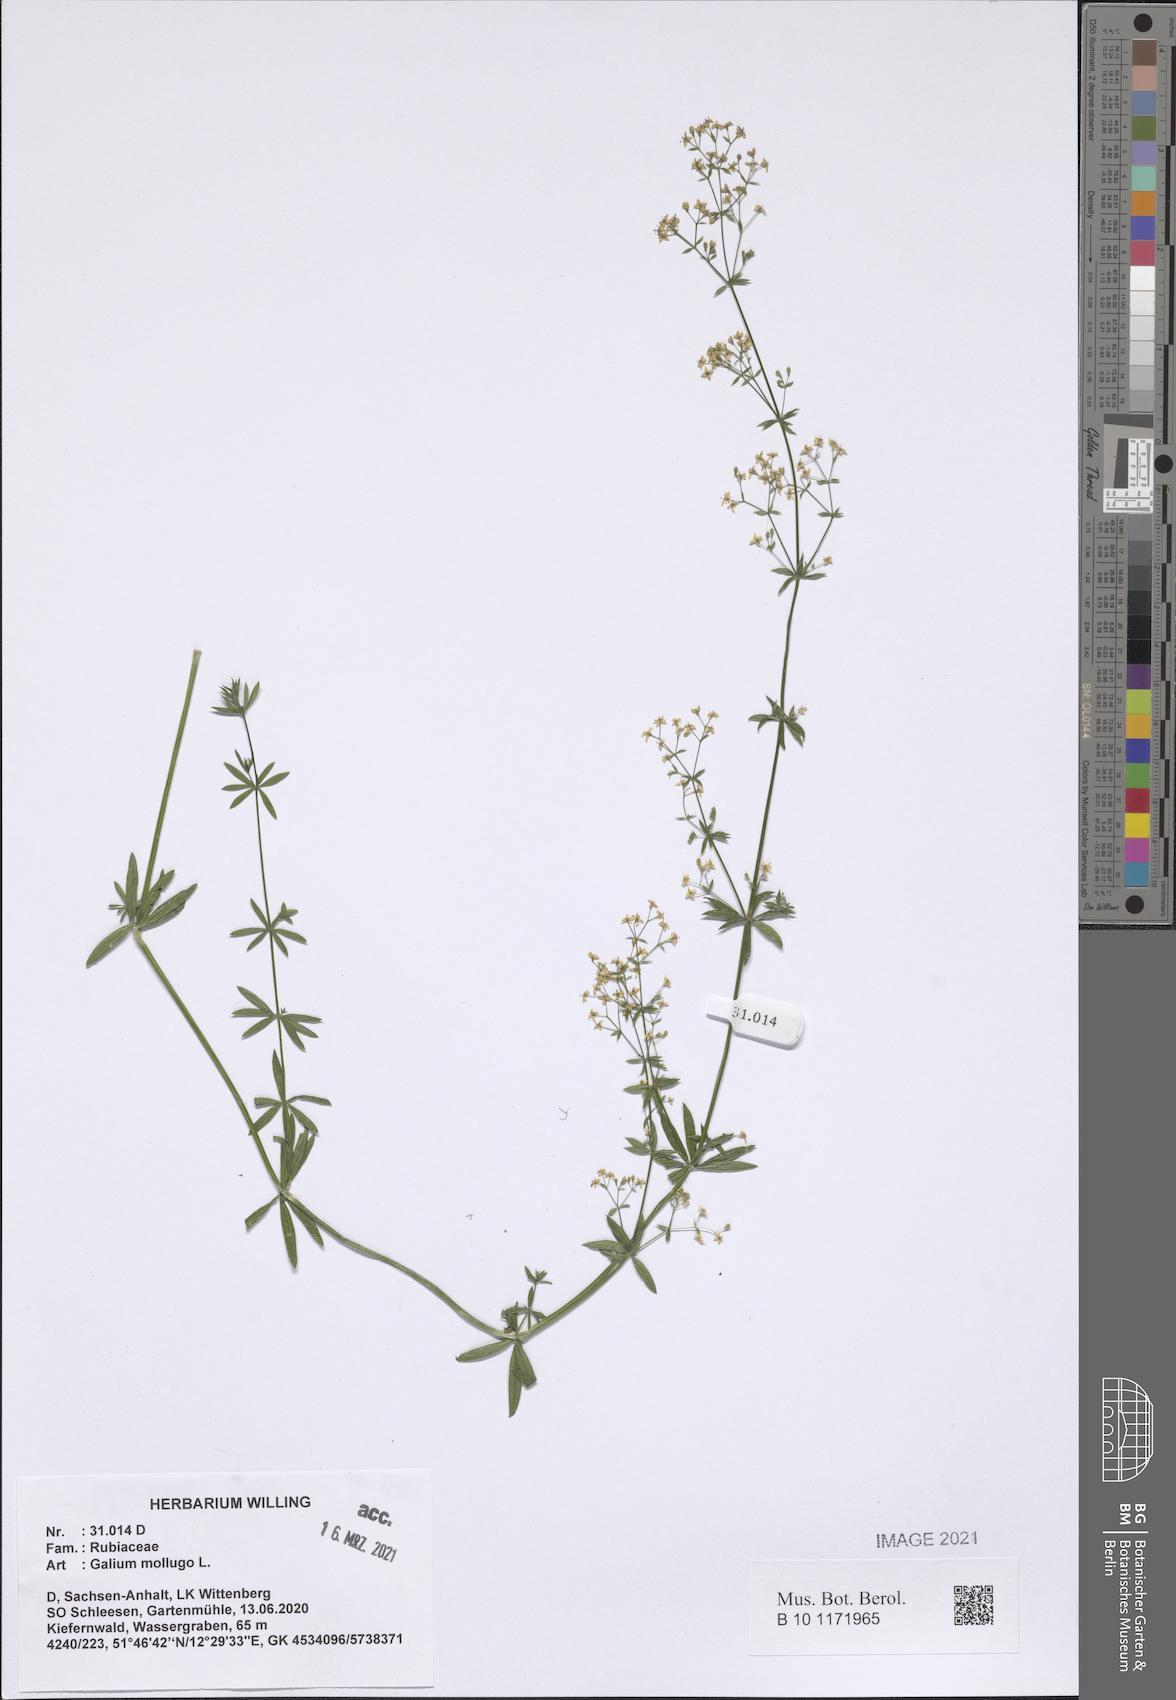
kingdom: Plantae
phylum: Tracheophyta
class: Magnoliopsida
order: Gentianales
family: Rubiaceae
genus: Galium
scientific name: Galium mollugo
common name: Hedge bedstraw
